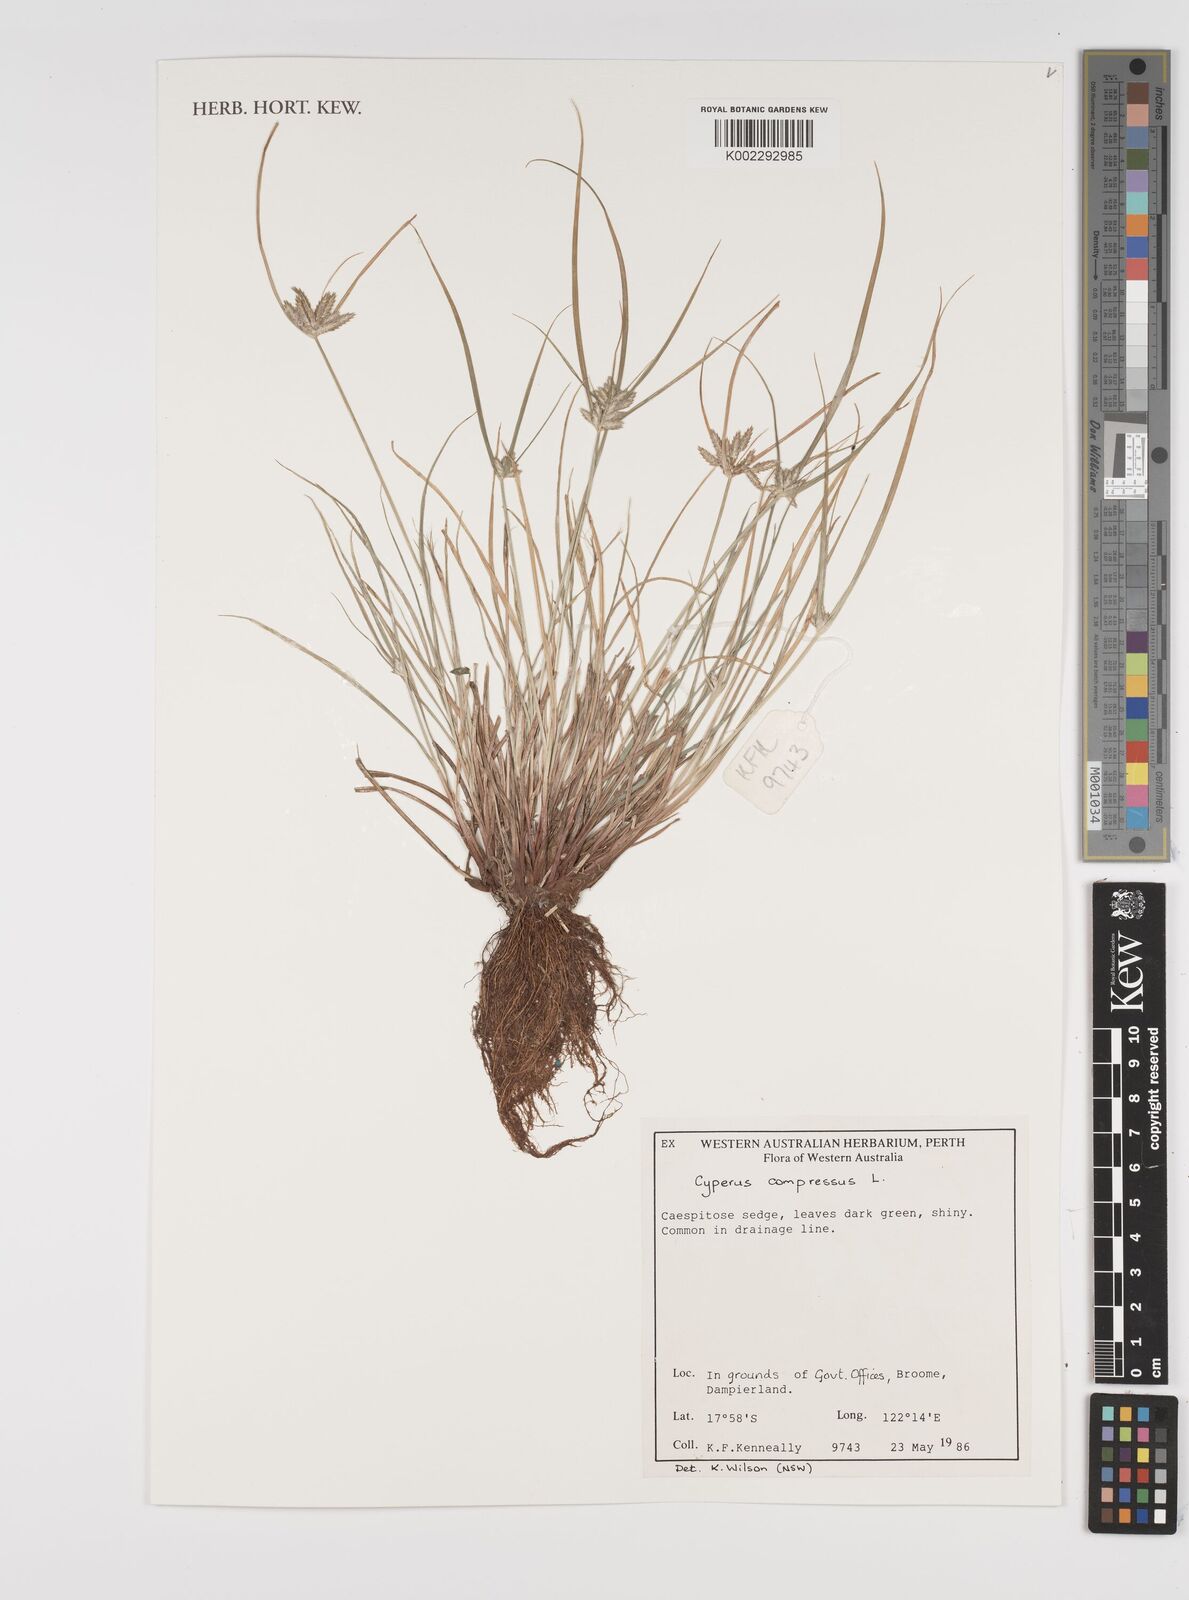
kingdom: Plantae
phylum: Tracheophyta
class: Liliopsida
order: Poales
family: Cyperaceae
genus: Cyperus
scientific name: Cyperus compressus
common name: Poorland flatsedge
